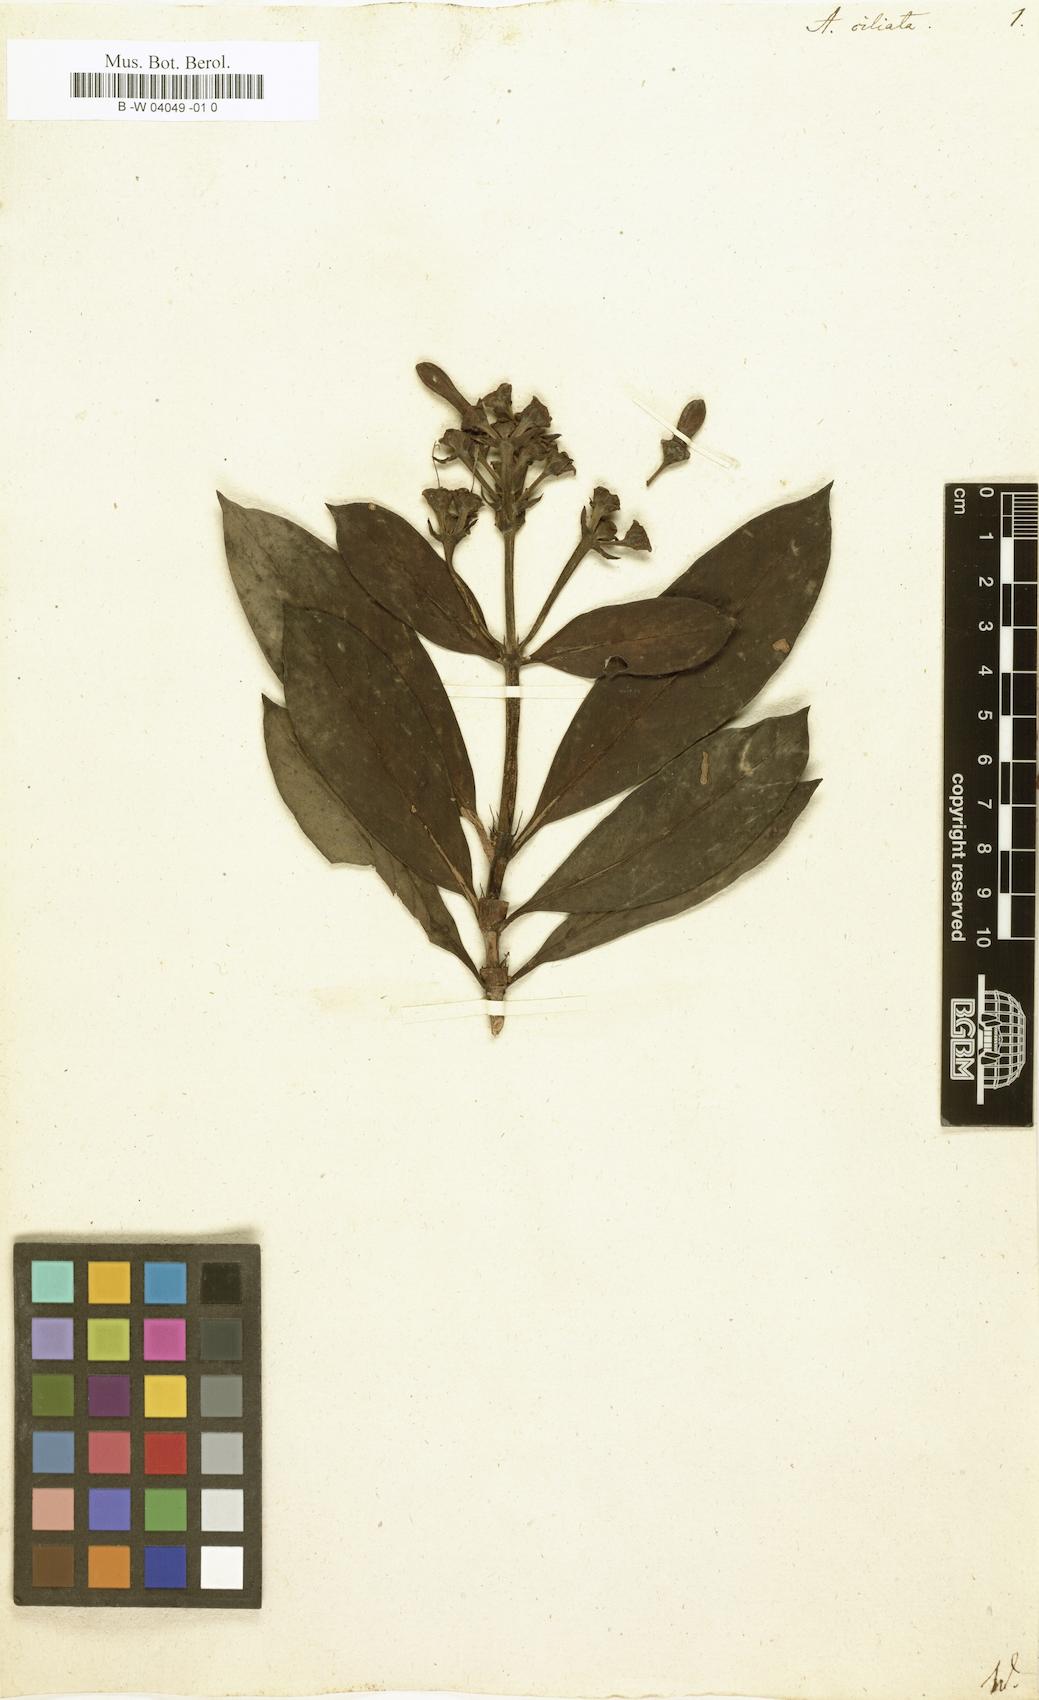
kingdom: Plantae
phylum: Tracheophyta
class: Magnoliopsida
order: Ericales
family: Ericaceae
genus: Andersonia
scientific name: Andersonia
